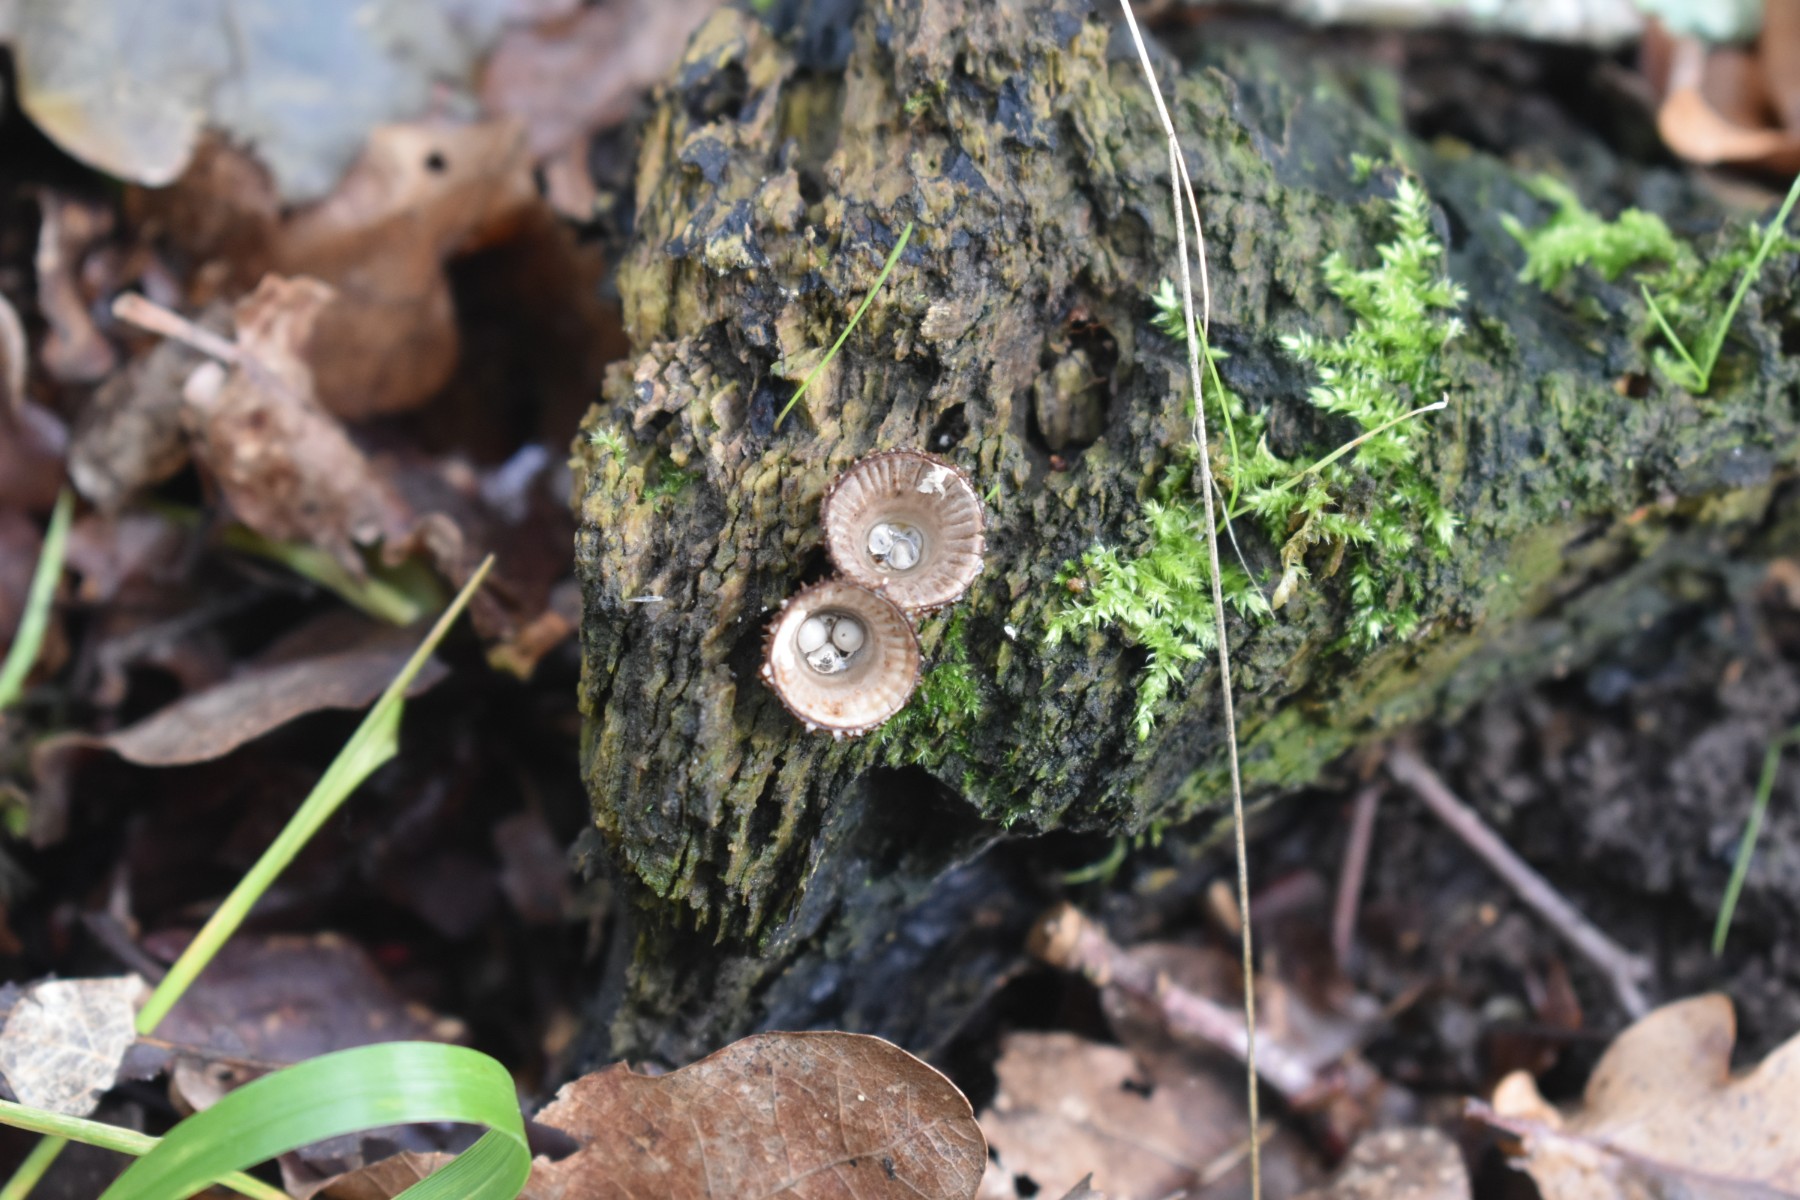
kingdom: Fungi
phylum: Basidiomycota
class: Agaricomycetes
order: Agaricales
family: Agaricaceae
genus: Cyathus
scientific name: Cyathus striatus
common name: stribet redesvamp
